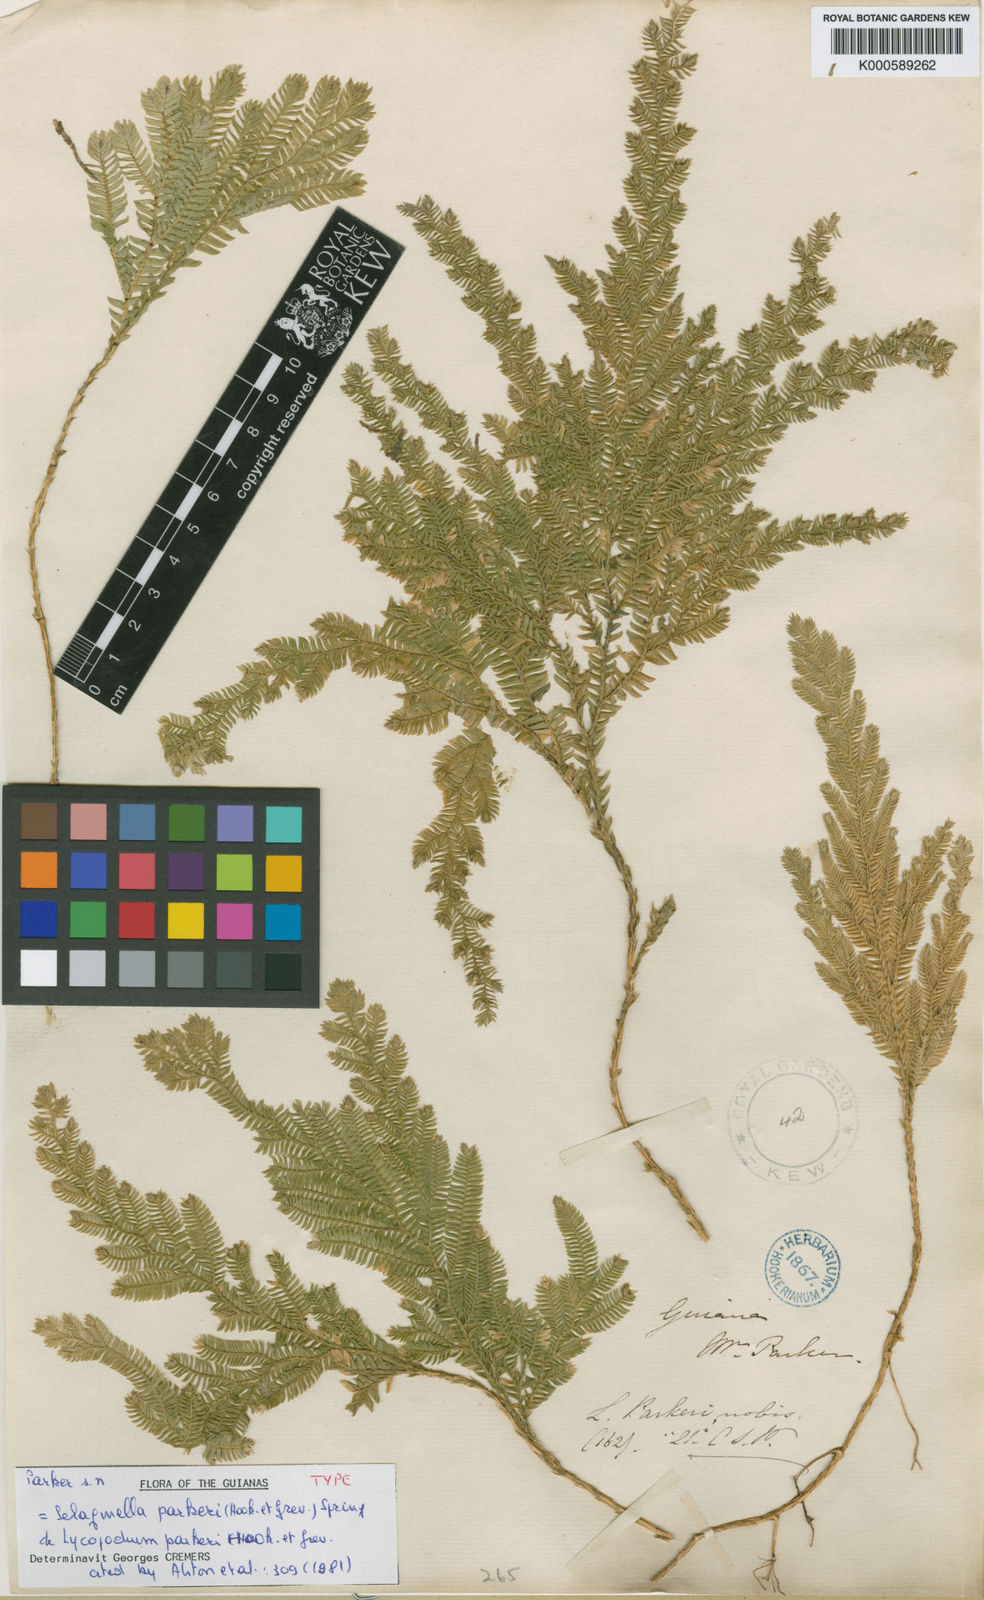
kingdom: Plantae
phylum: Tracheophyta
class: Lycopodiopsida
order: Selaginellales
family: Selaginellaceae
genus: Selaginella
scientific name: Selaginella parkeri
